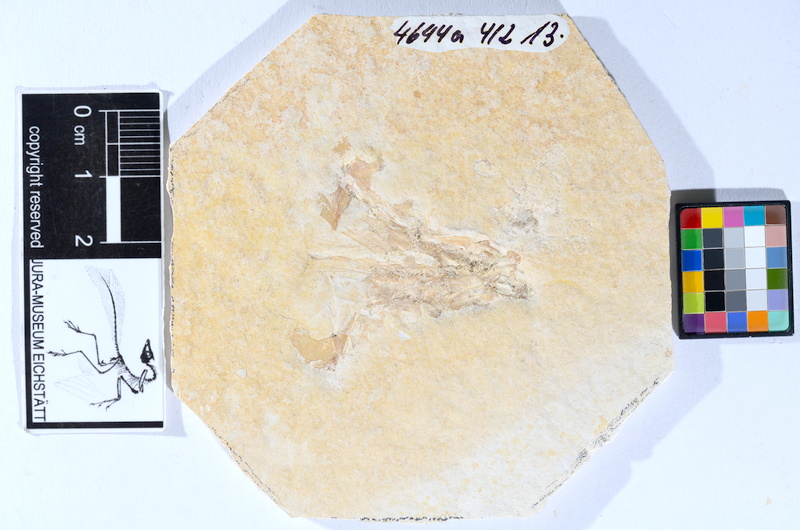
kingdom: Animalia
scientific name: Animalia
